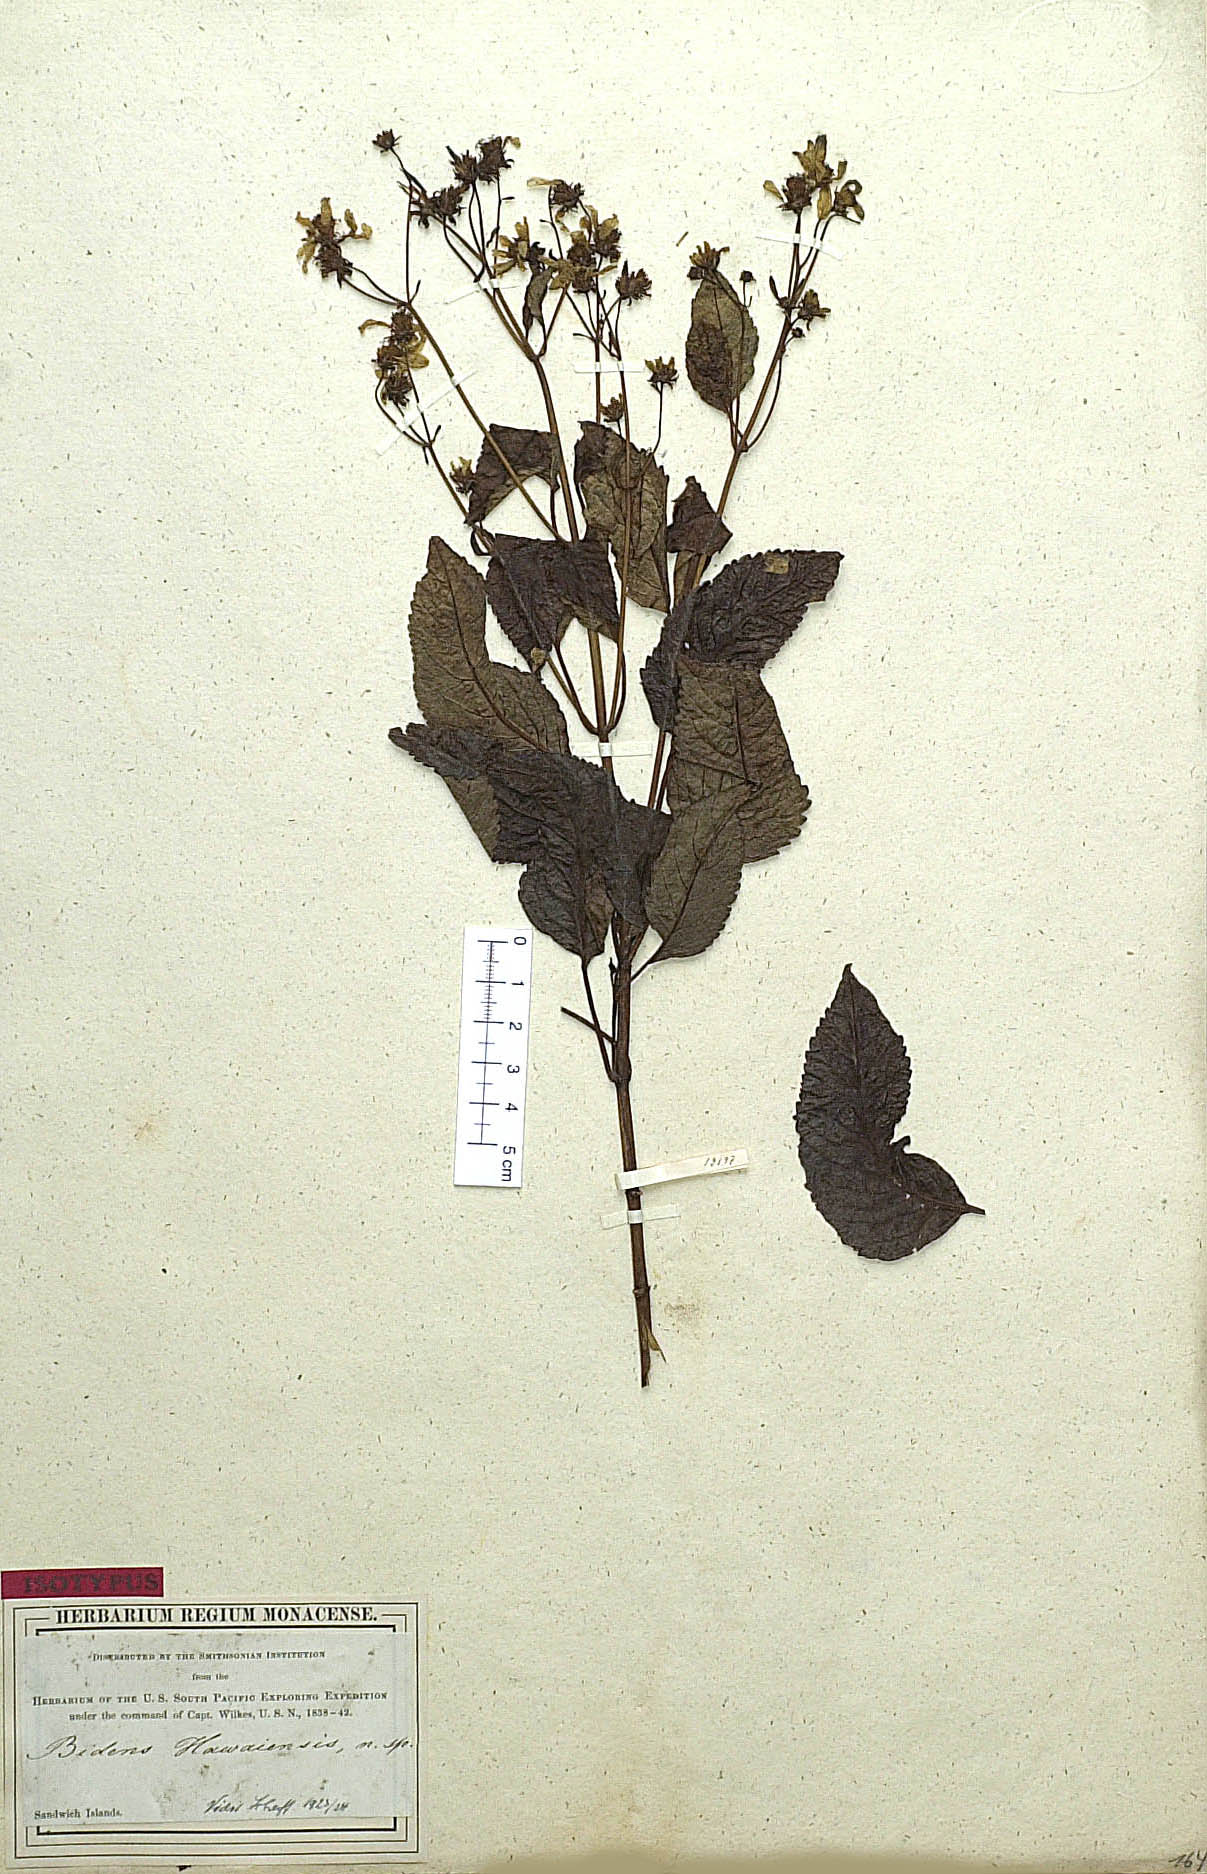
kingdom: Plantae
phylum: Tracheophyta
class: Magnoliopsida
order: Asterales
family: Asteraceae
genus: Bidens
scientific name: Bidens hawaiensis
